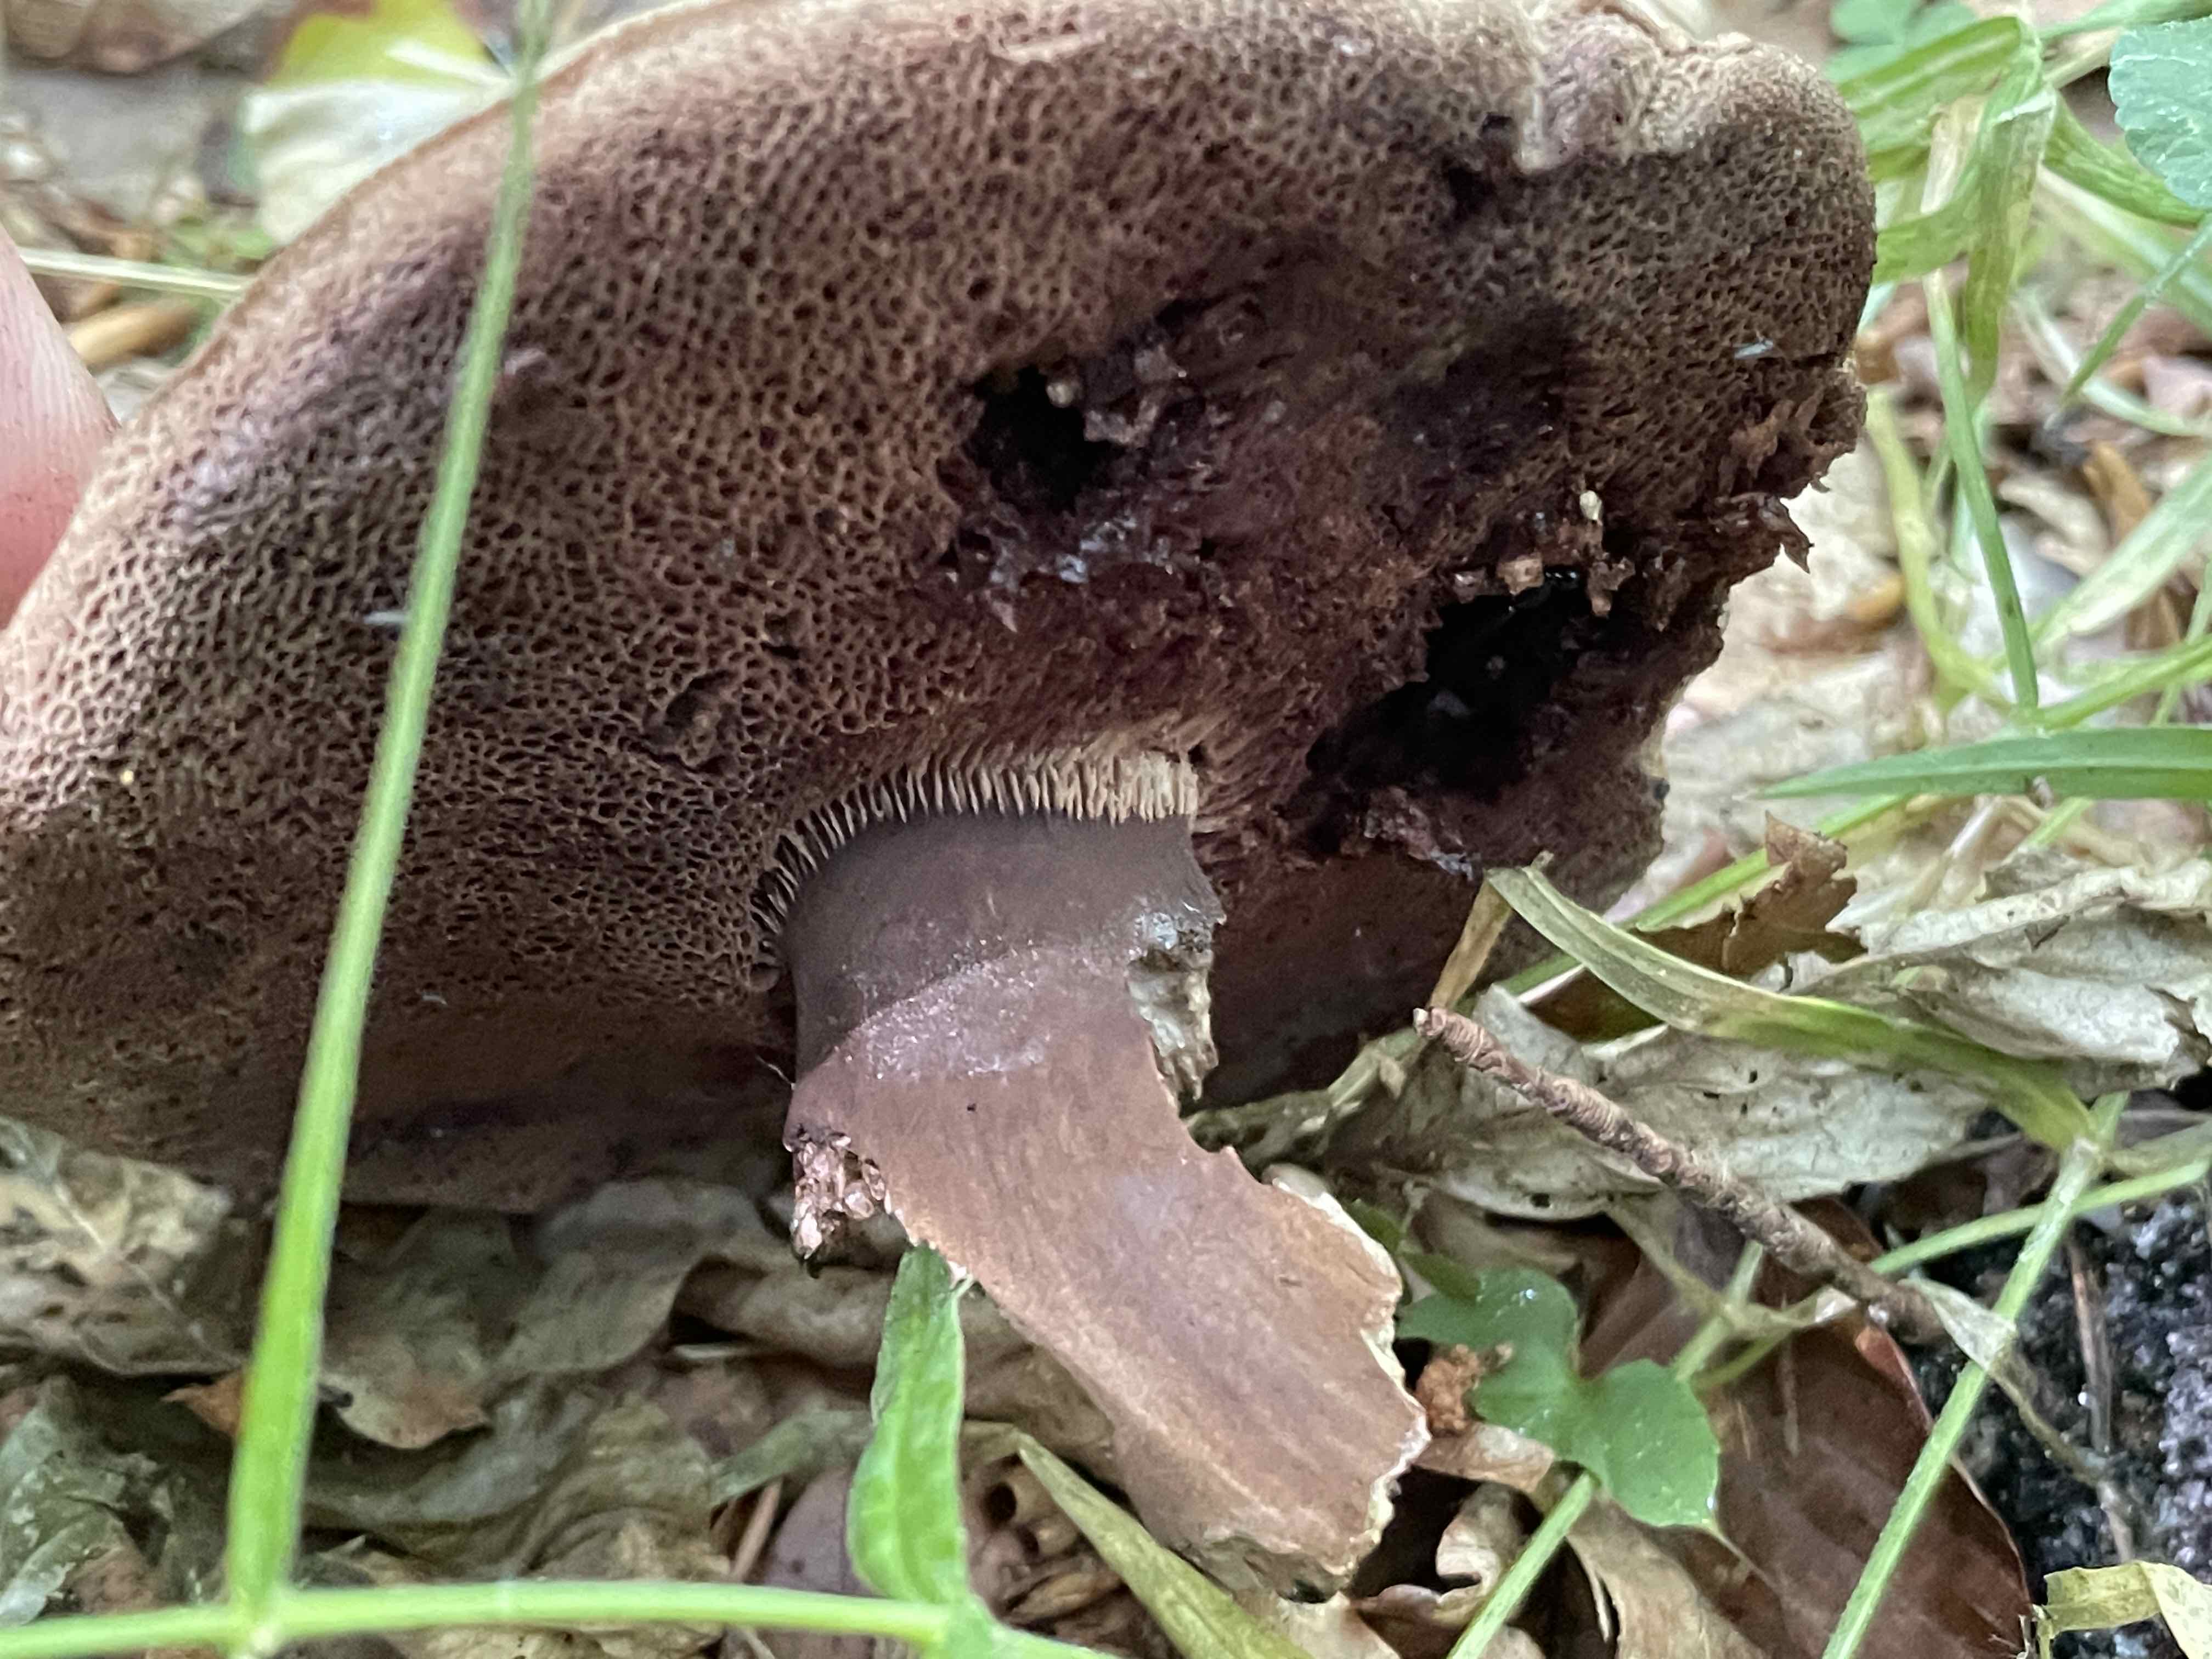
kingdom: Fungi
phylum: Basidiomycota
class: Agaricomycetes
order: Boletales
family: Boletaceae
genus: Porphyrellus
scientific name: Porphyrellus porphyrosporus
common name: sodrørhat
